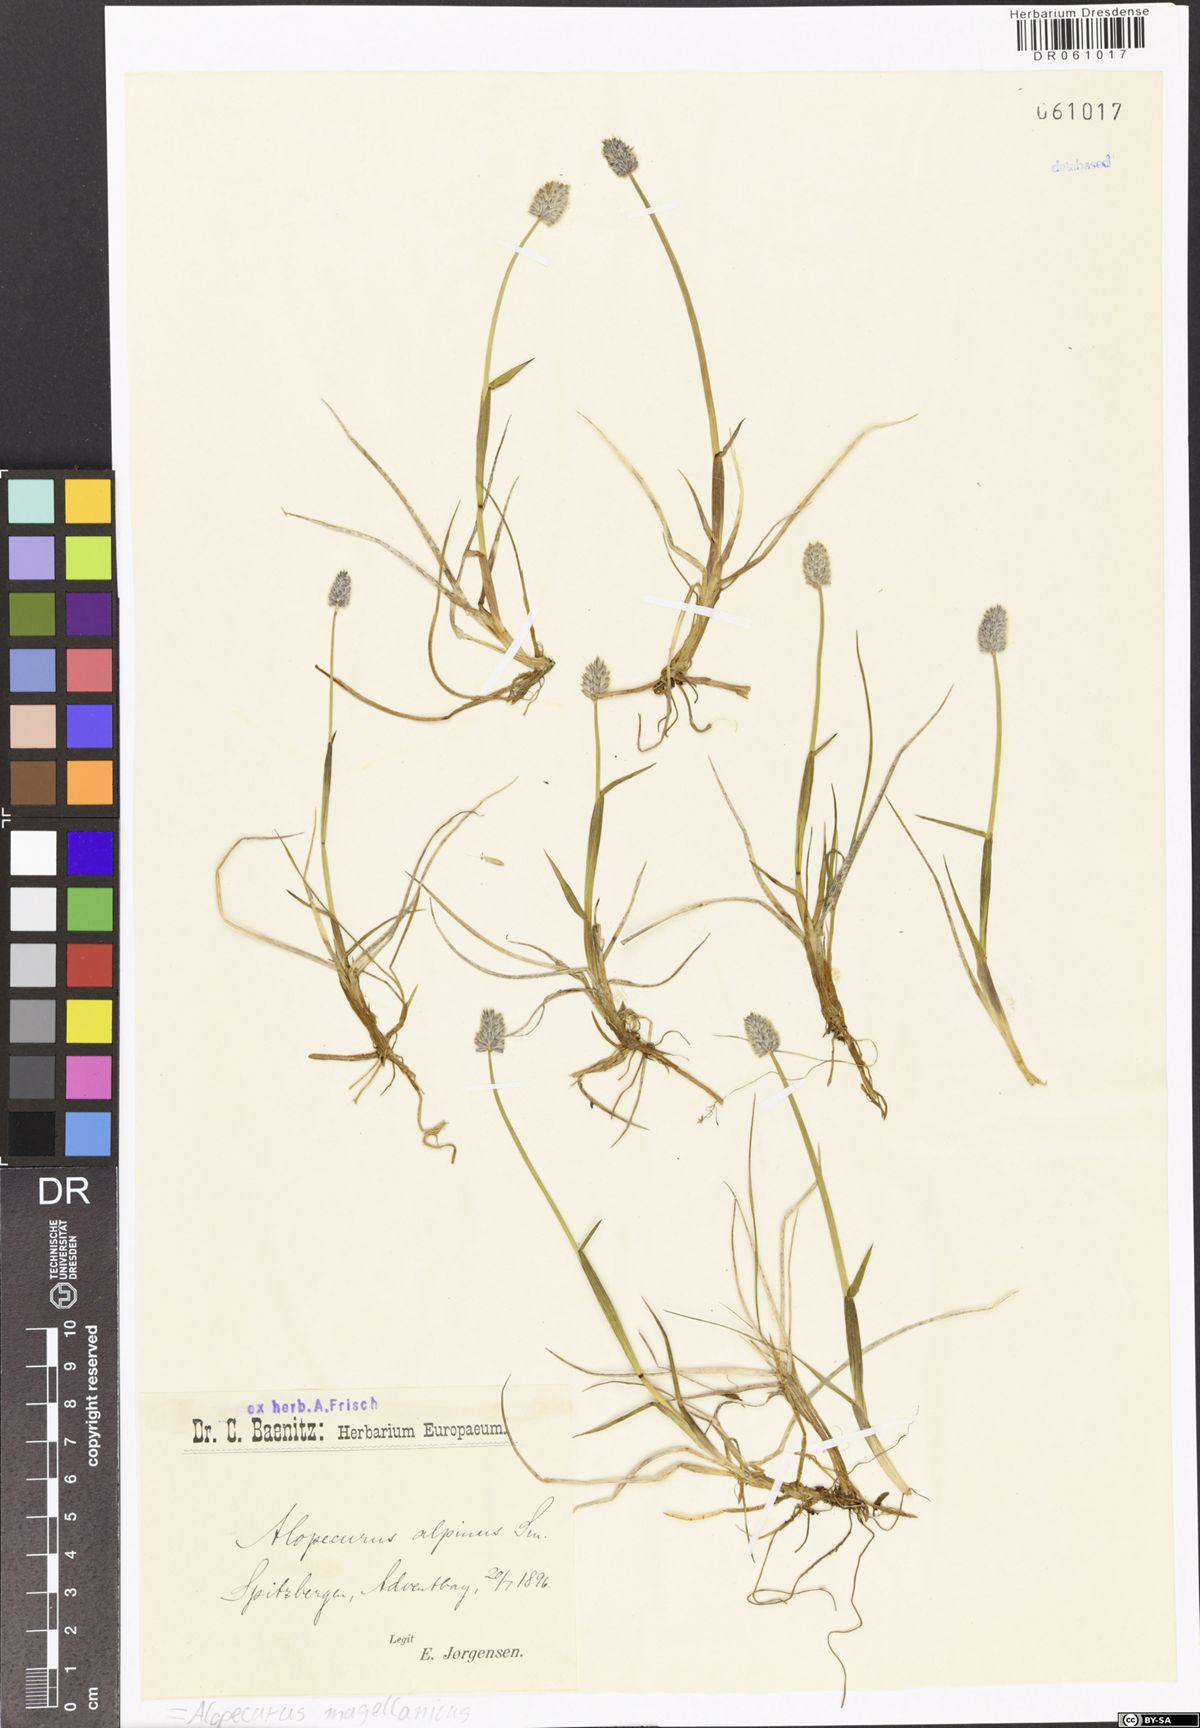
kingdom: Plantae
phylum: Tracheophyta
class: Liliopsida
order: Poales
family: Poaceae
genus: Alopecurus
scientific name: Alopecurus magellanicus
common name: Alpine foxtail
